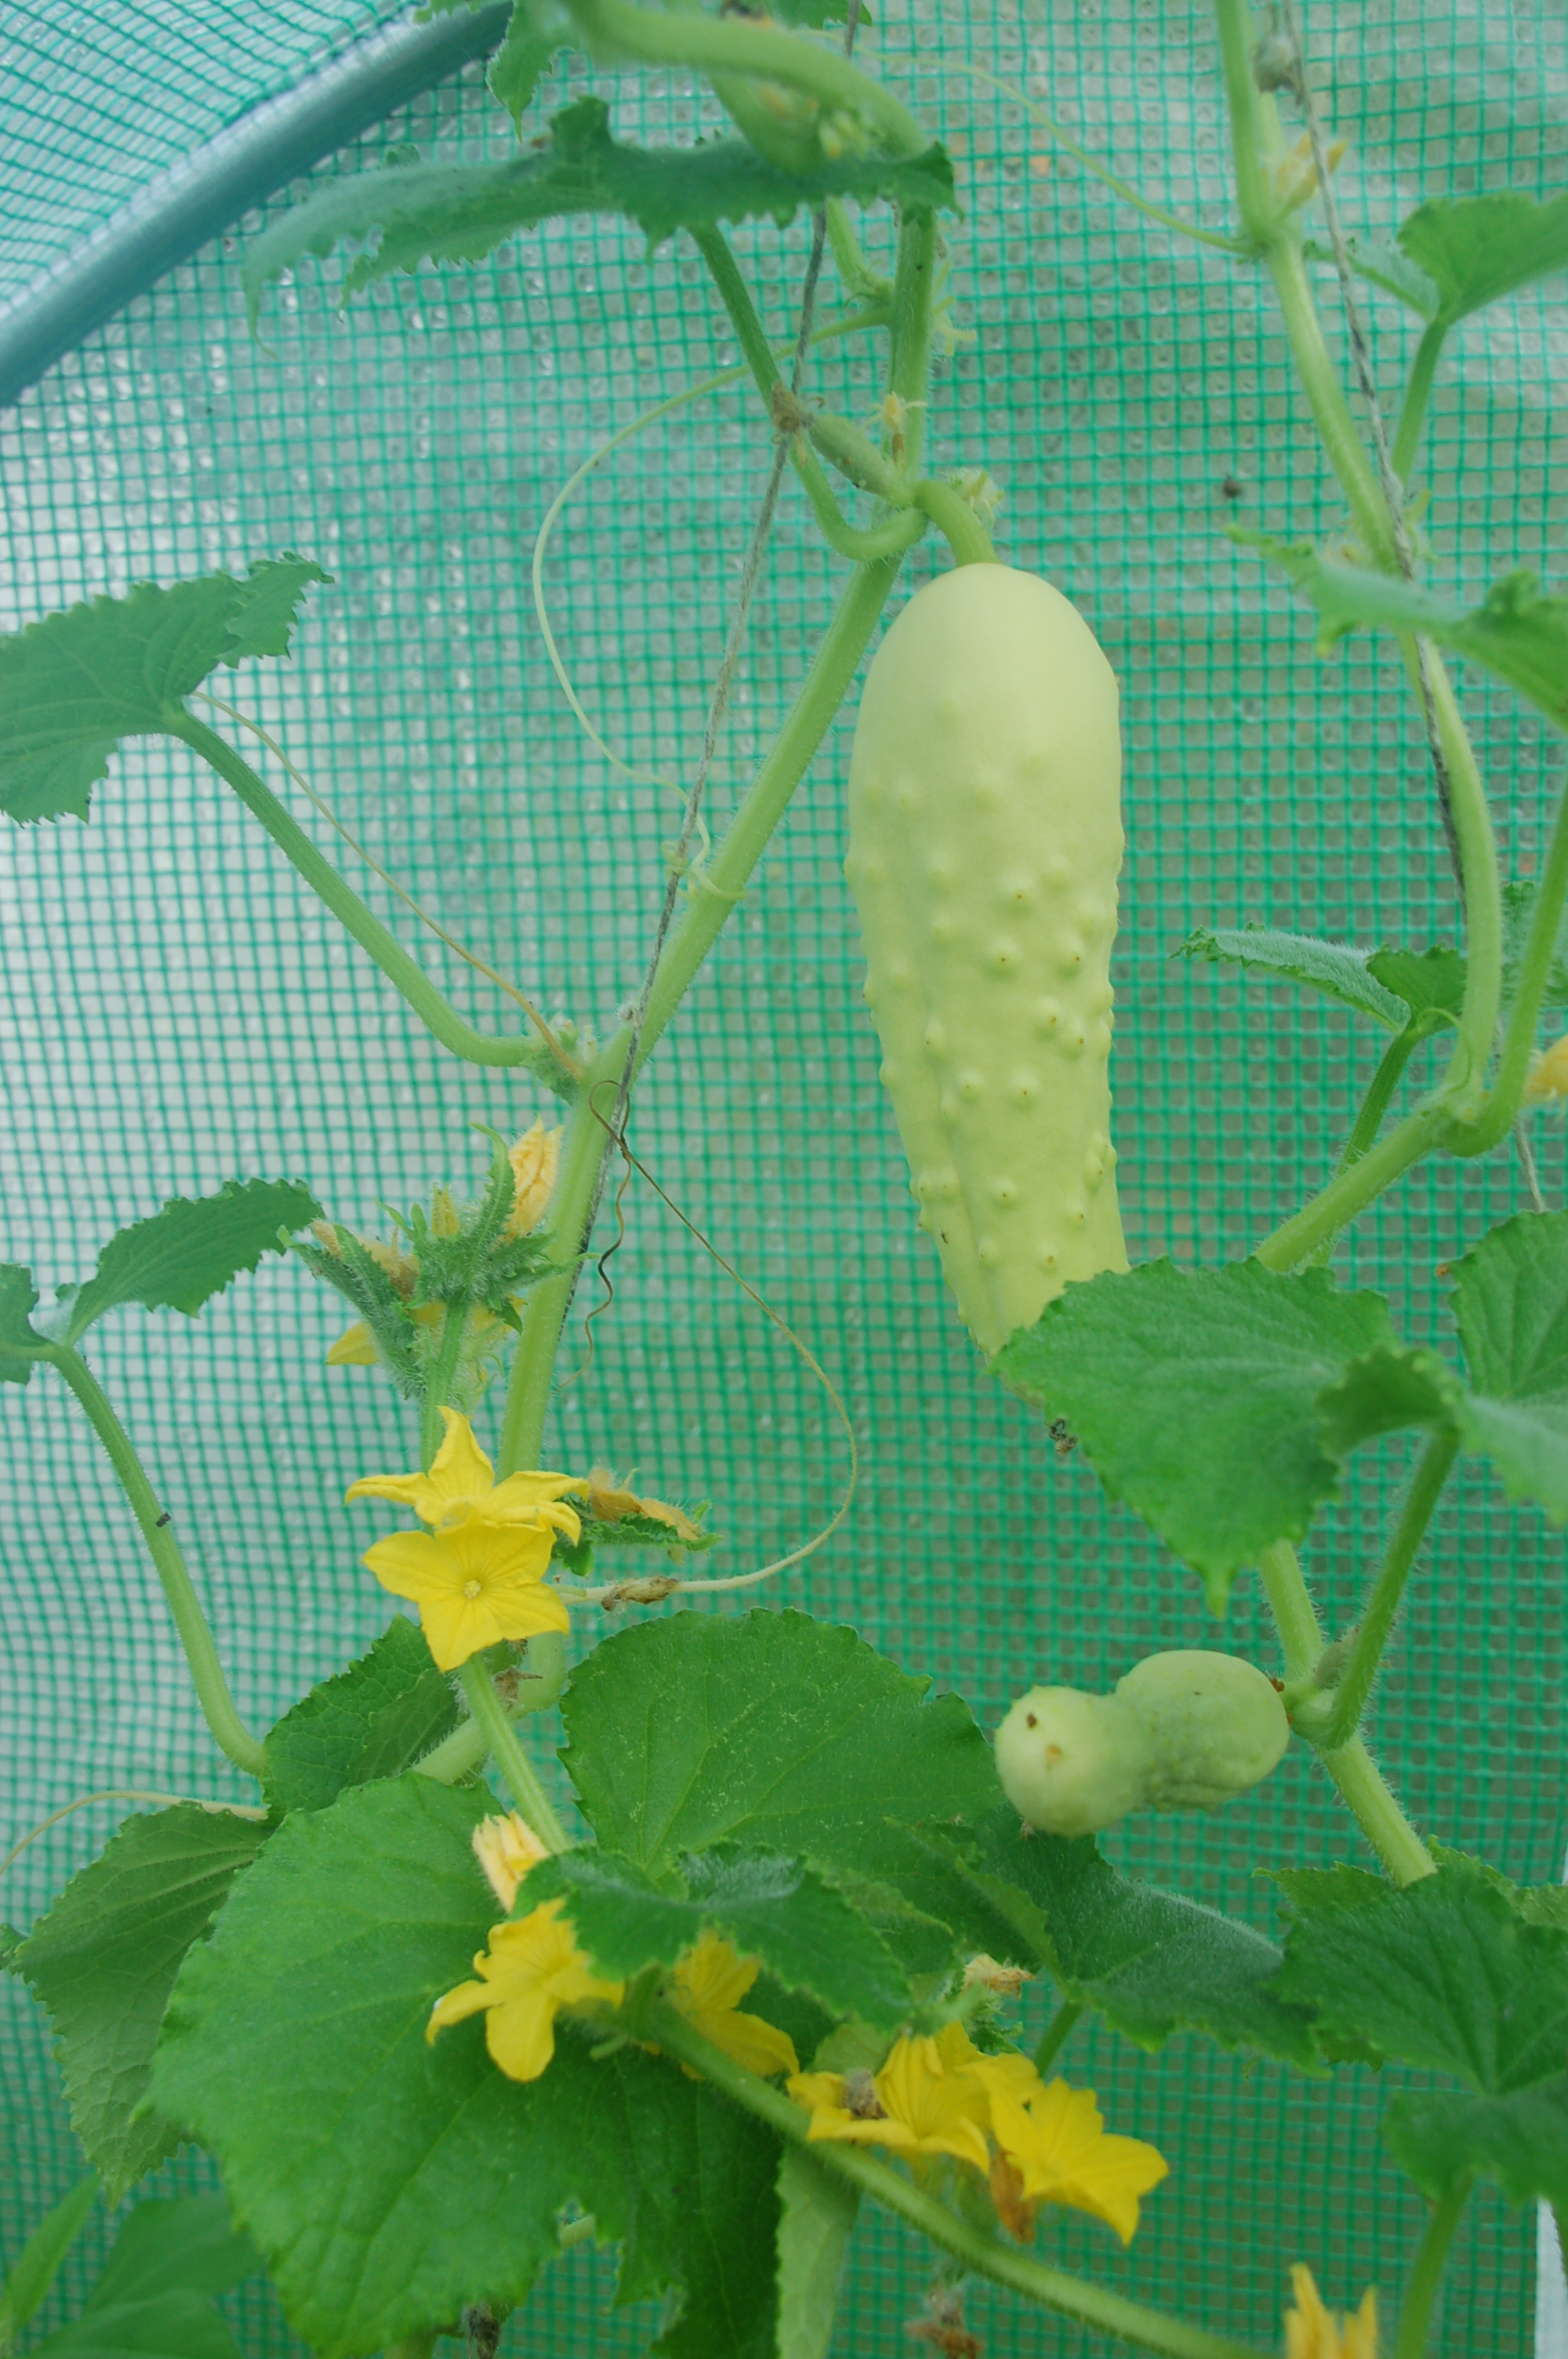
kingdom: Plantae
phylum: Tracheophyta
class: Magnoliopsida
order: Cucurbitales
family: Cucurbitaceae
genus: Cucumis
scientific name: Cucumis sativus
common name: Cucumber
